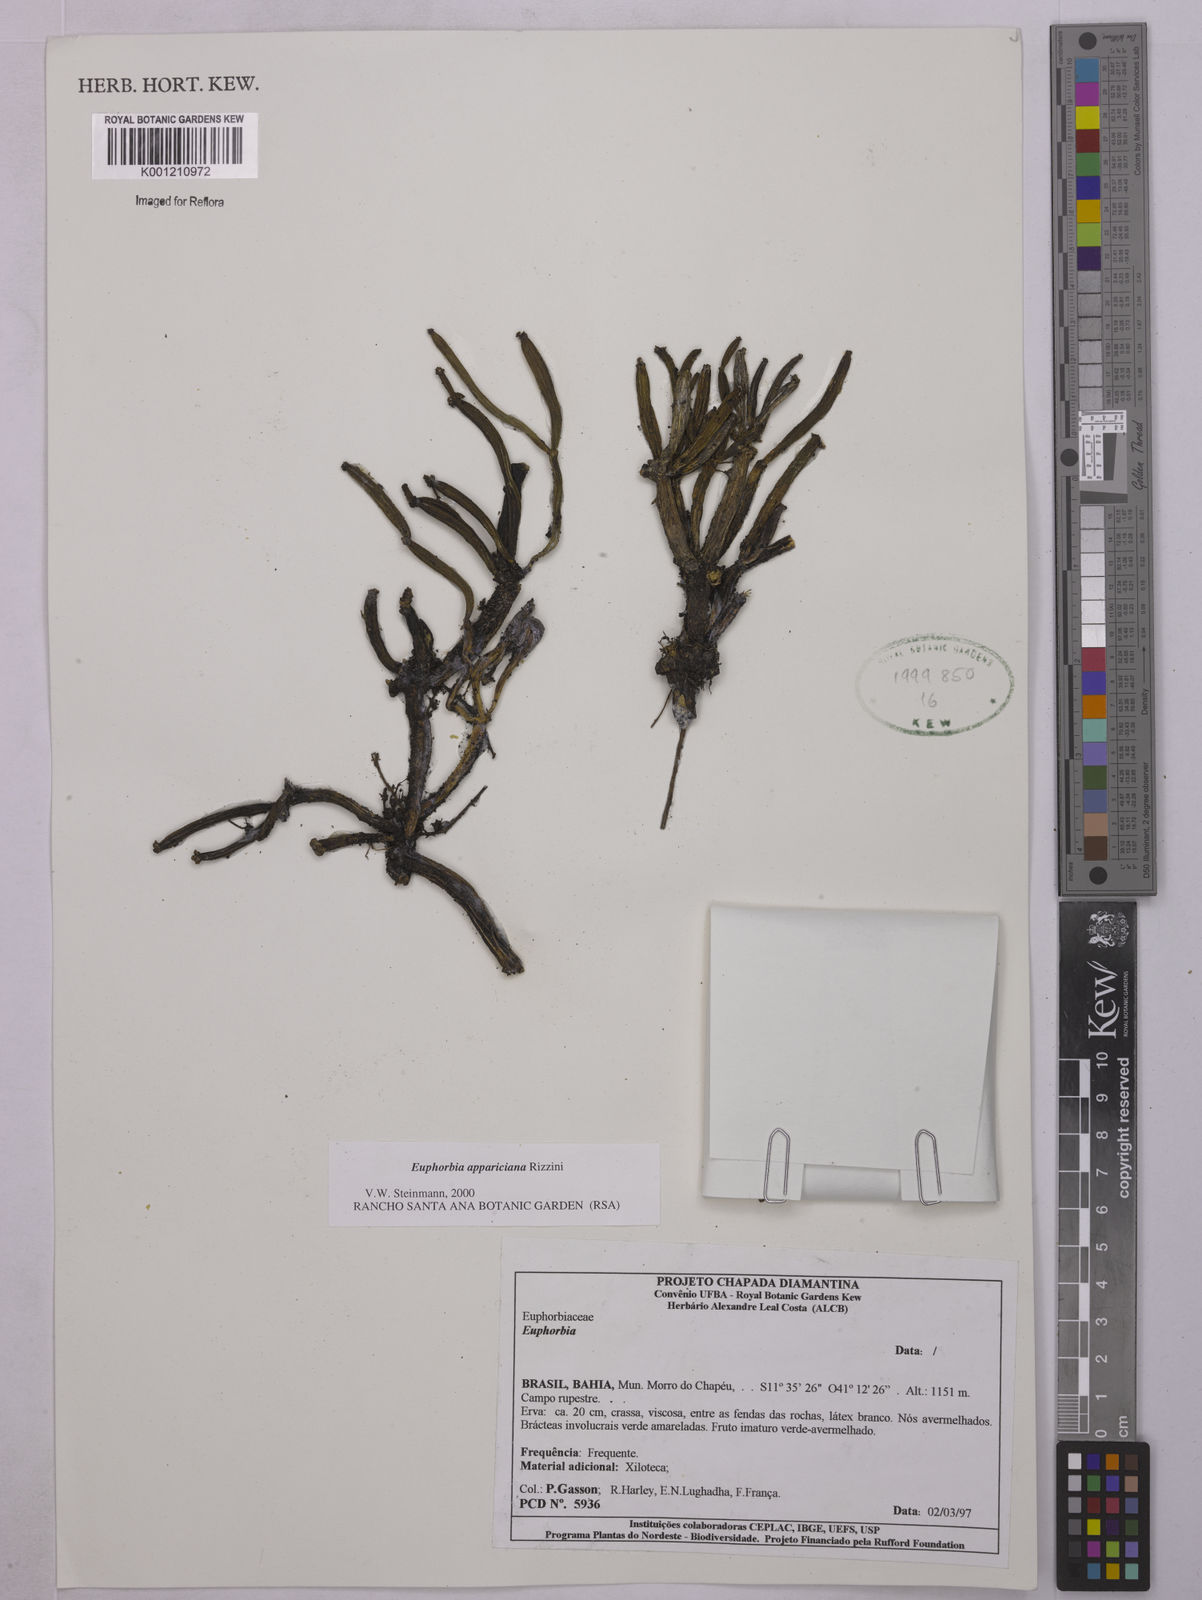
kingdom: Plantae
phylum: Tracheophyta
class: Magnoliopsida
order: Malpighiales
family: Euphorbiaceae
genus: Euphorbia
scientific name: Euphorbia appariciana
